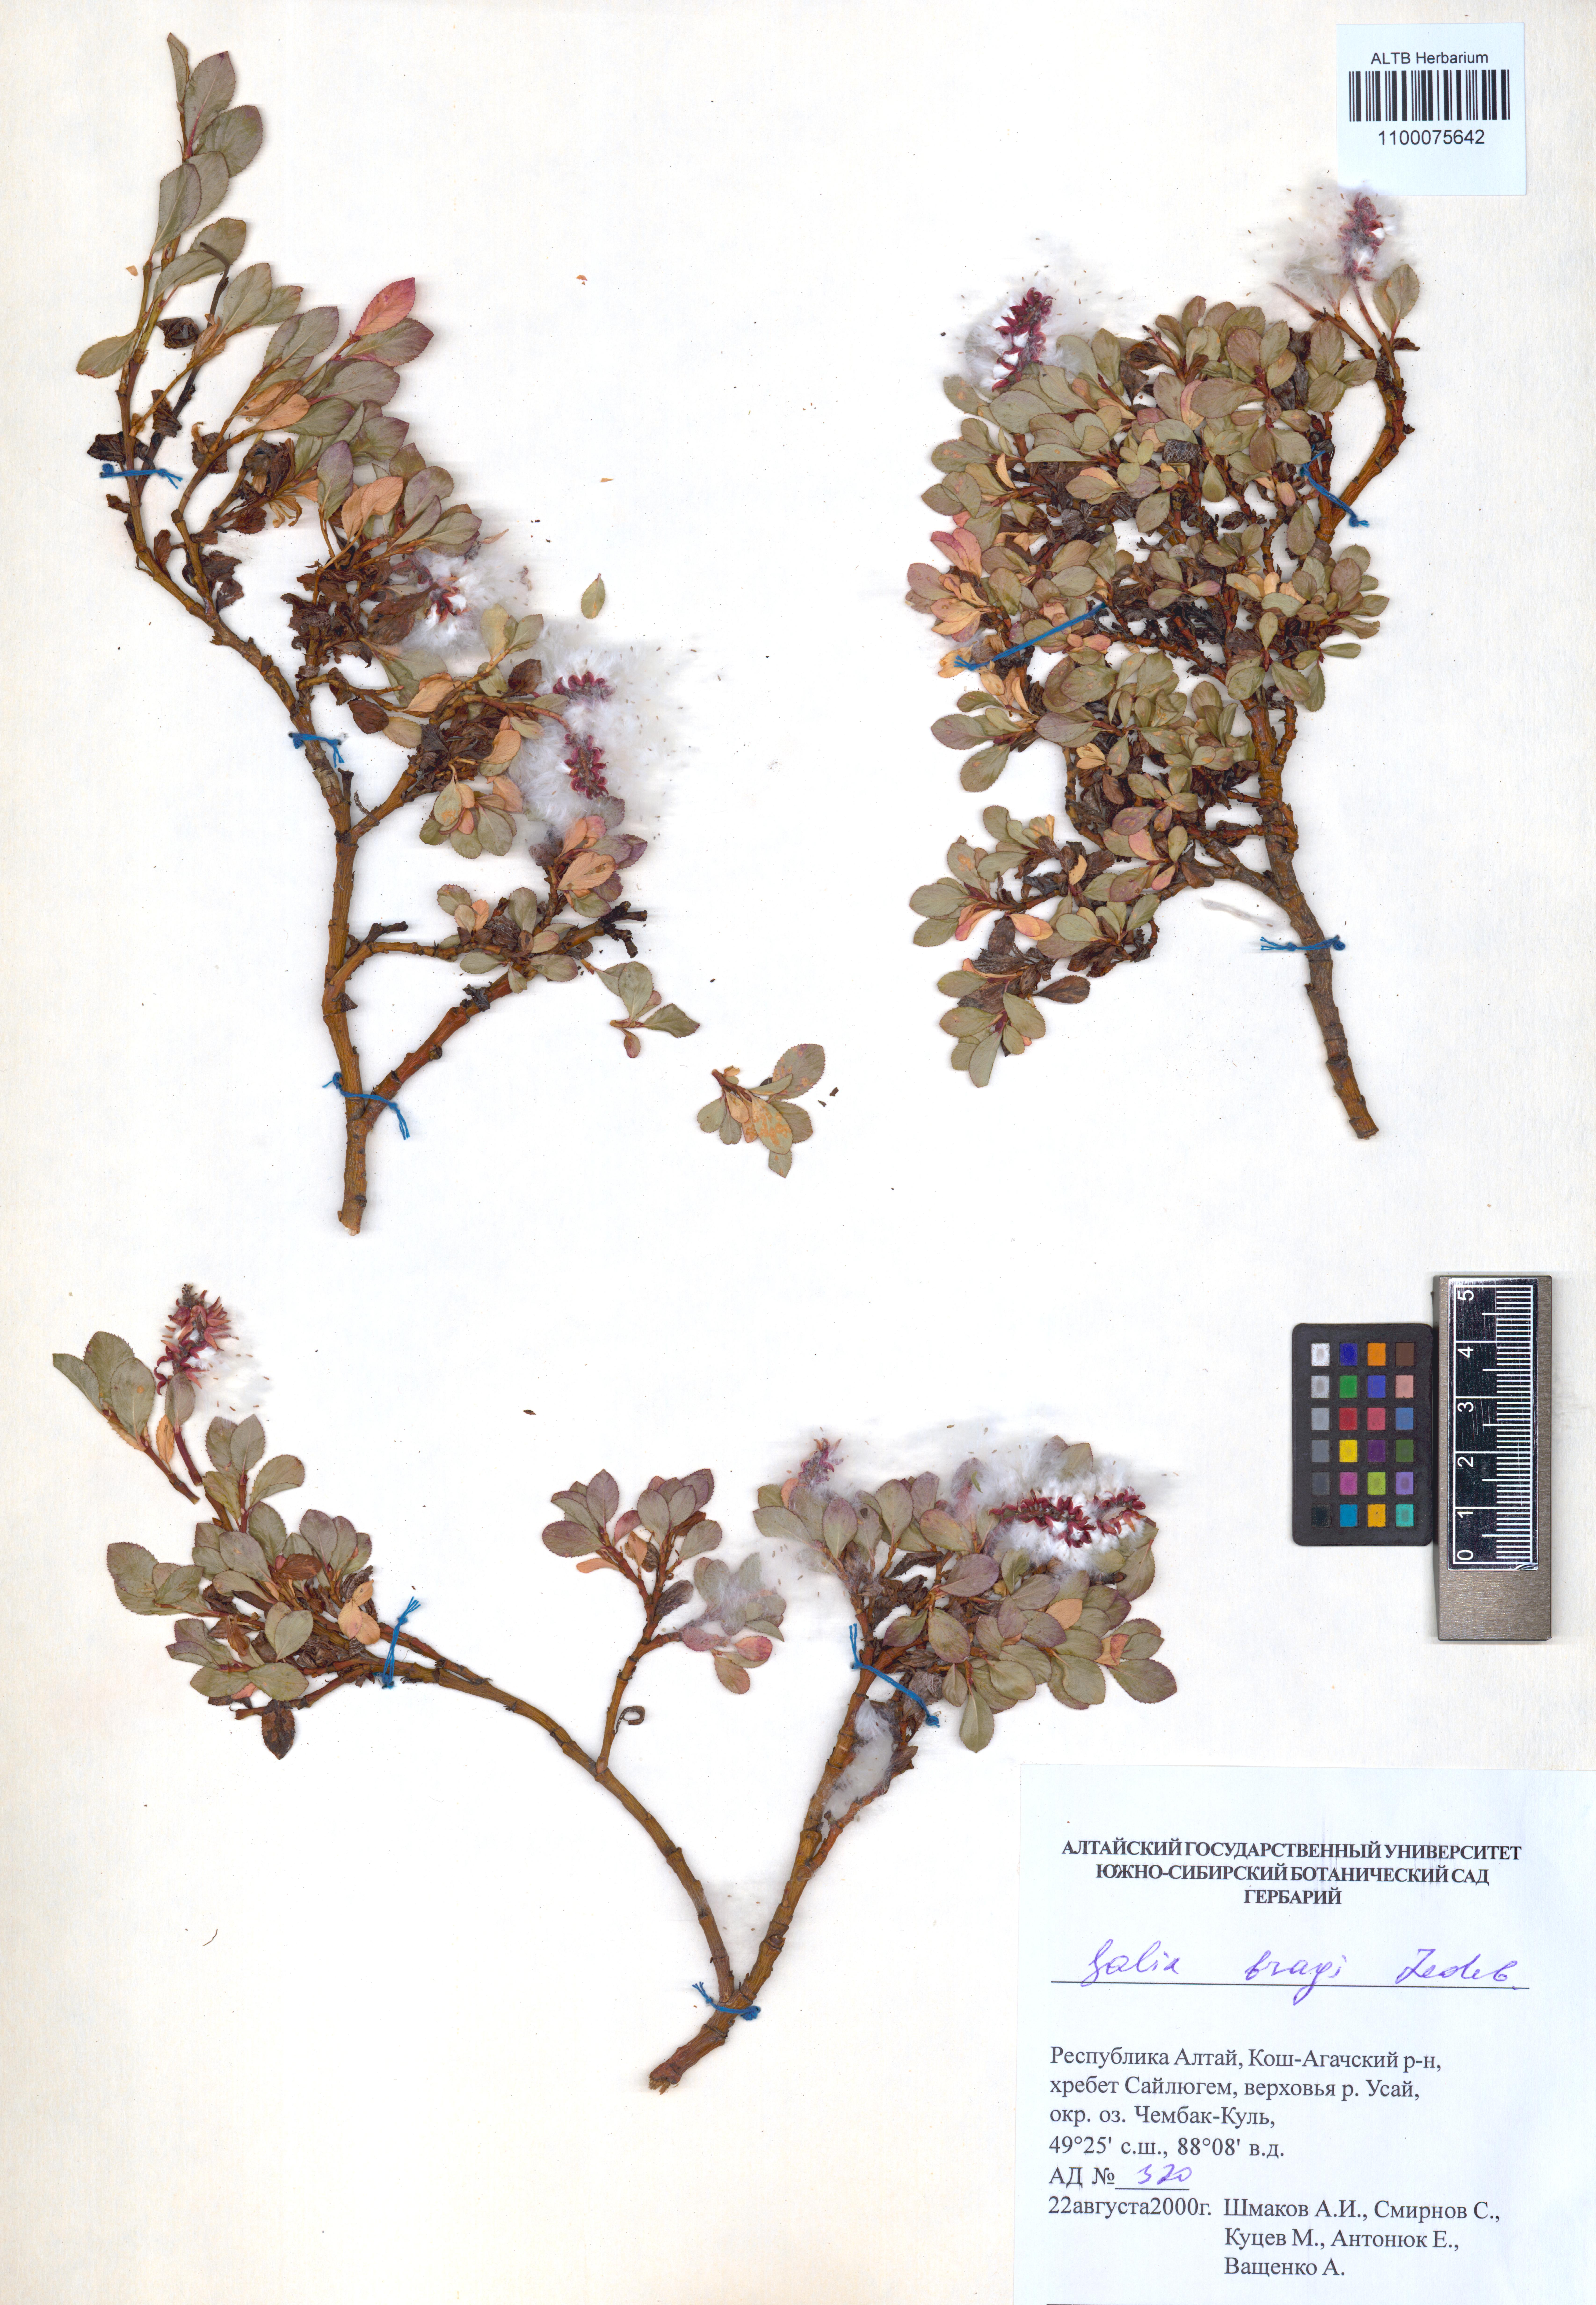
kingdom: Plantae
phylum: Tracheophyta
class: Magnoliopsida
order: Malpighiales
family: Salicaceae
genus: Salix
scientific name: Salix berberifolia
